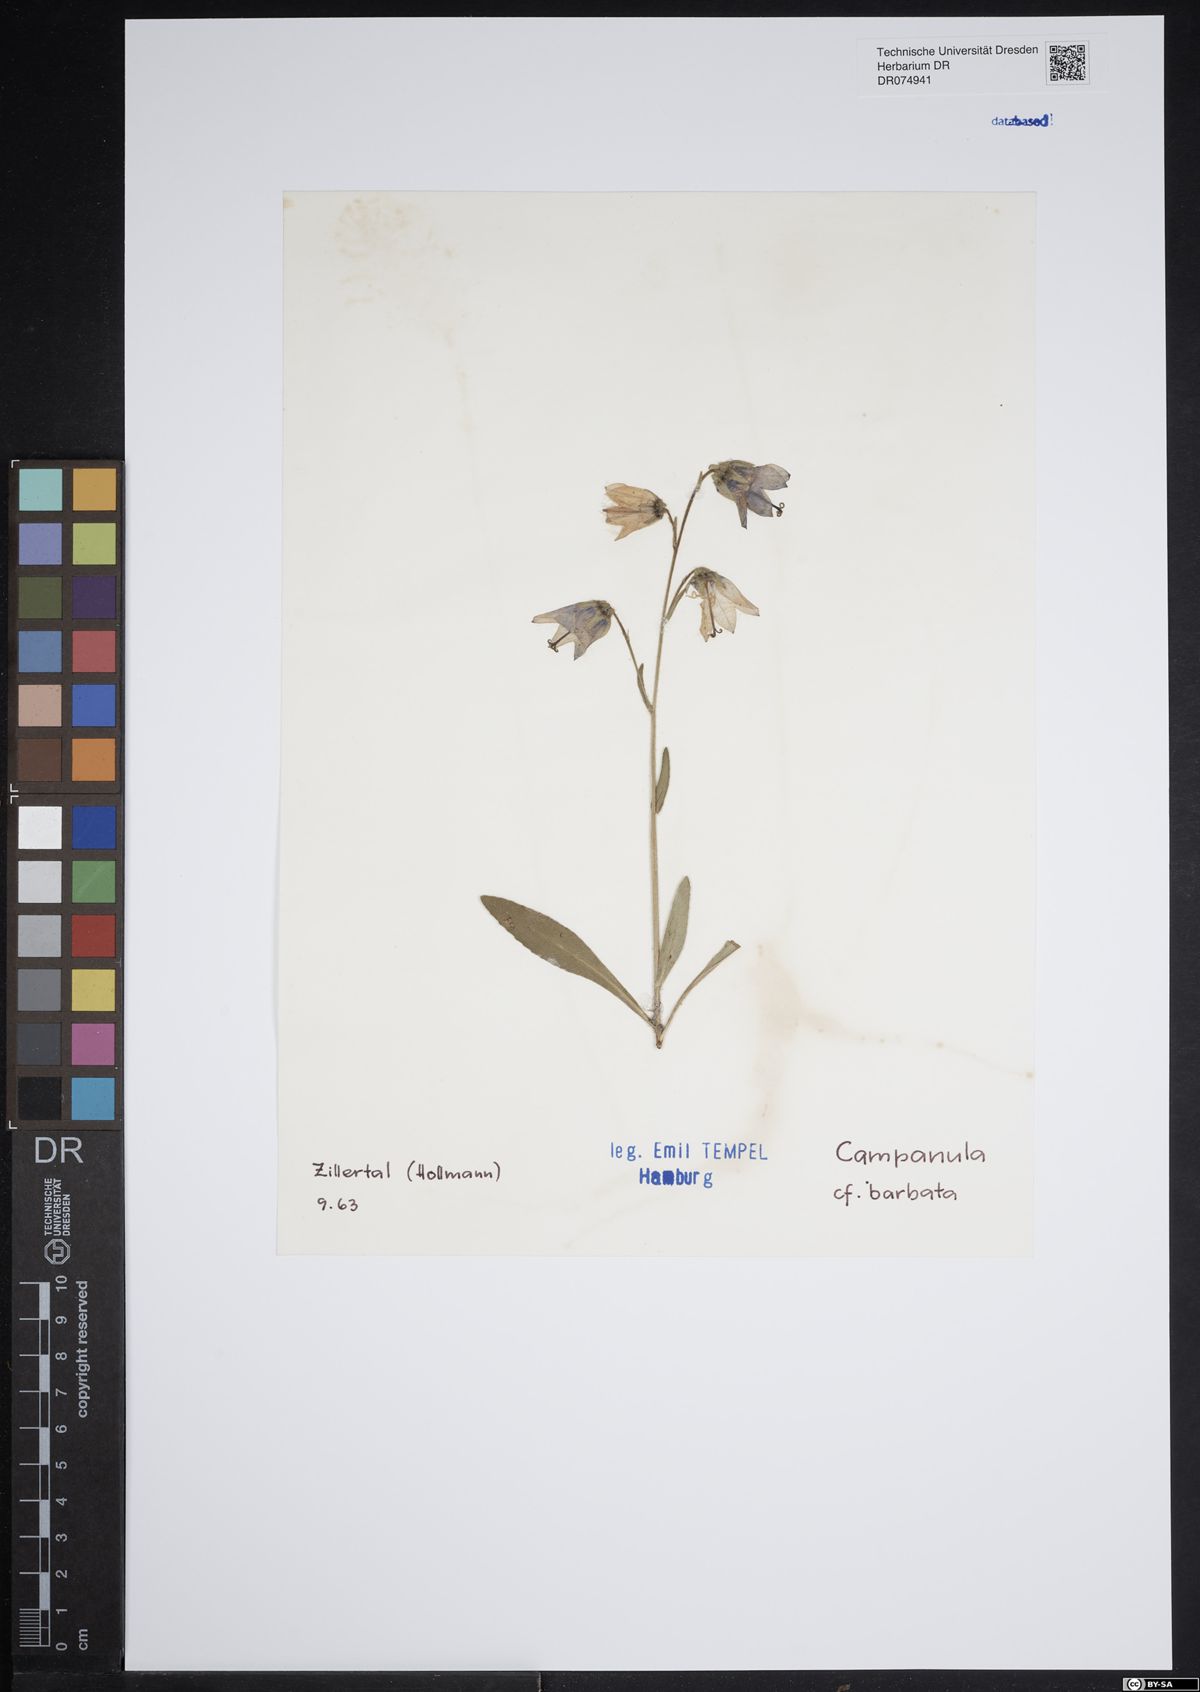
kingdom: Plantae
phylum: Tracheophyta
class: Magnoliopsida
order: Asterales
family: Campanulaceae
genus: Campanula
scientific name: Campanula barbata
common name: Bearded bellflower
